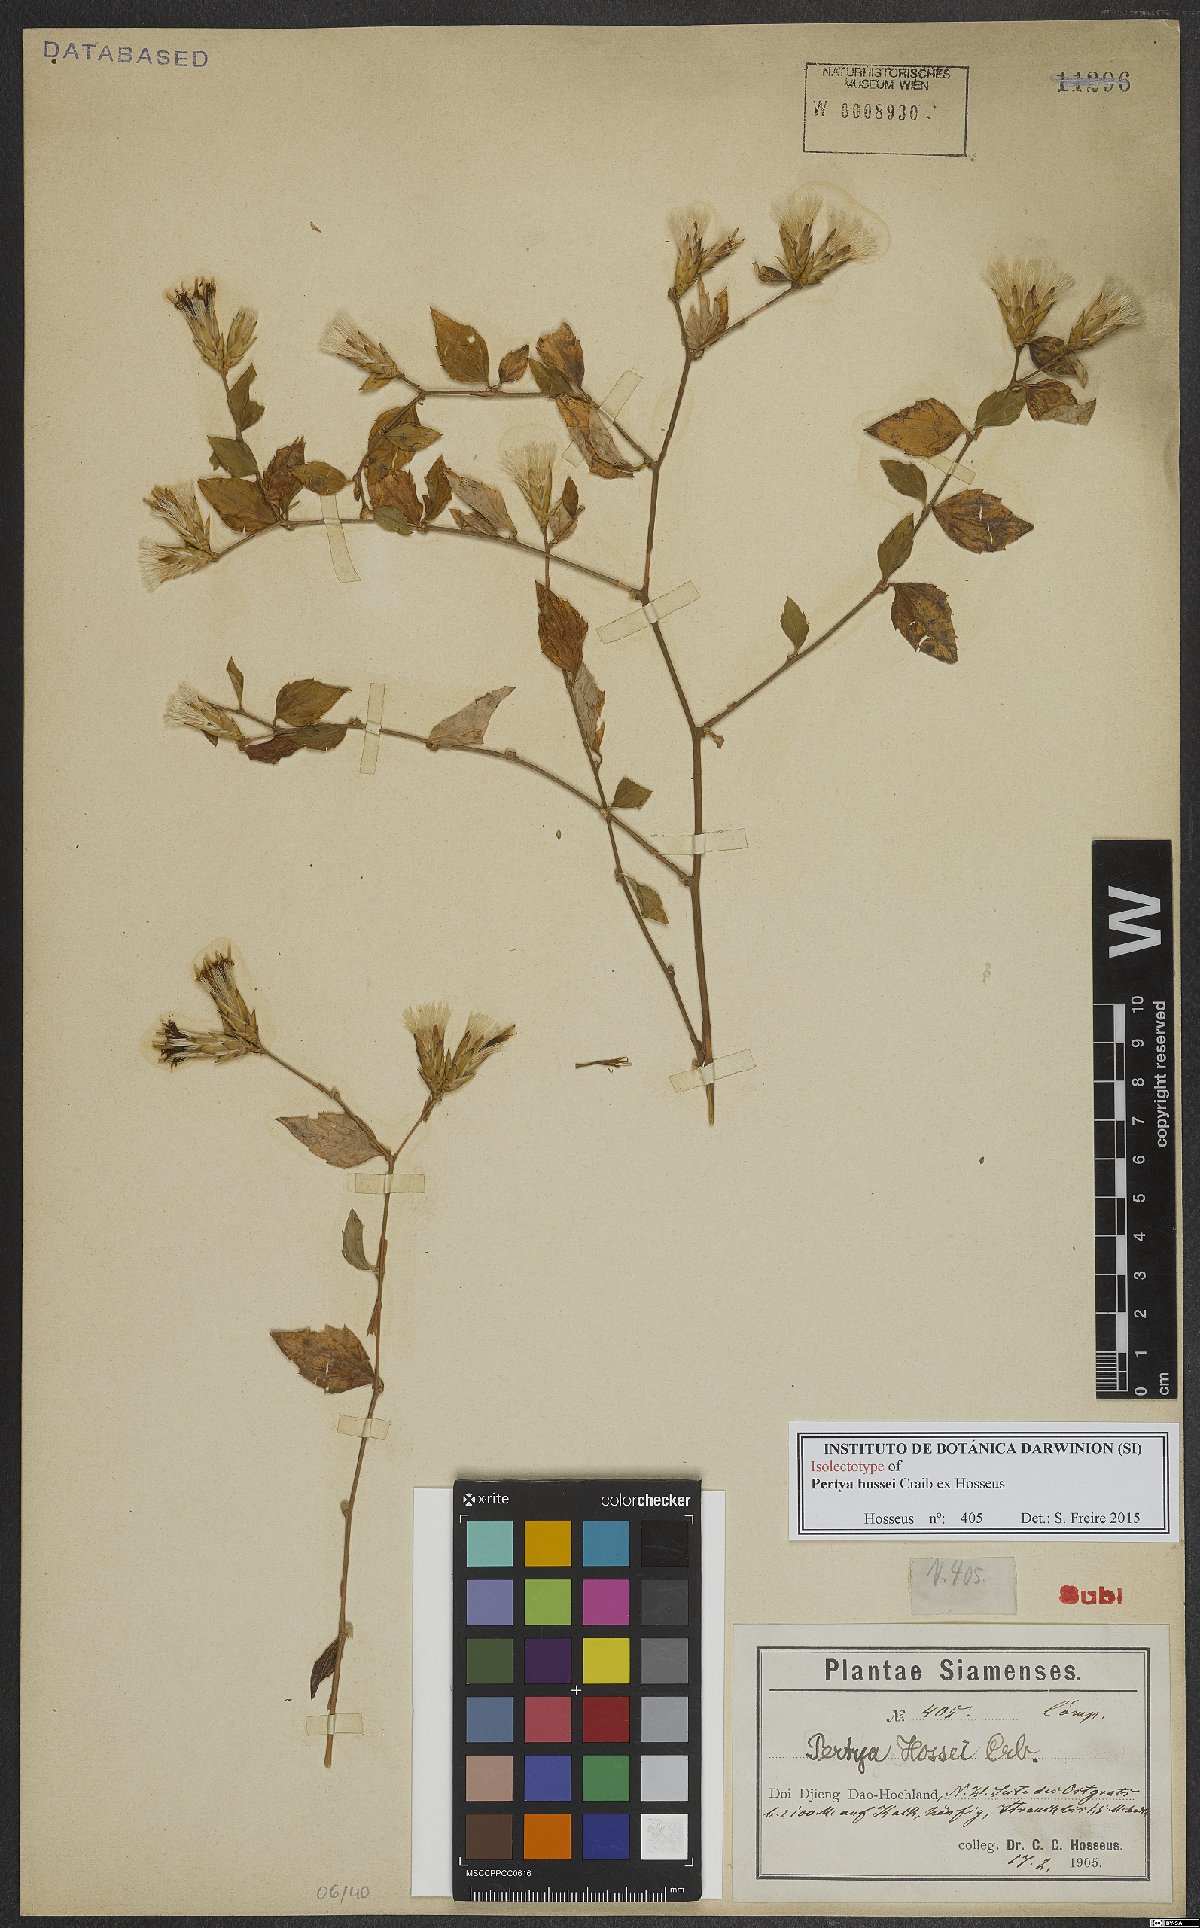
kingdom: Plantae
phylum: Tracheophyta
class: Magnoliopsida
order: Asterales
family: Asteraceae
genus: Pertya
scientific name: Pertya hossei
